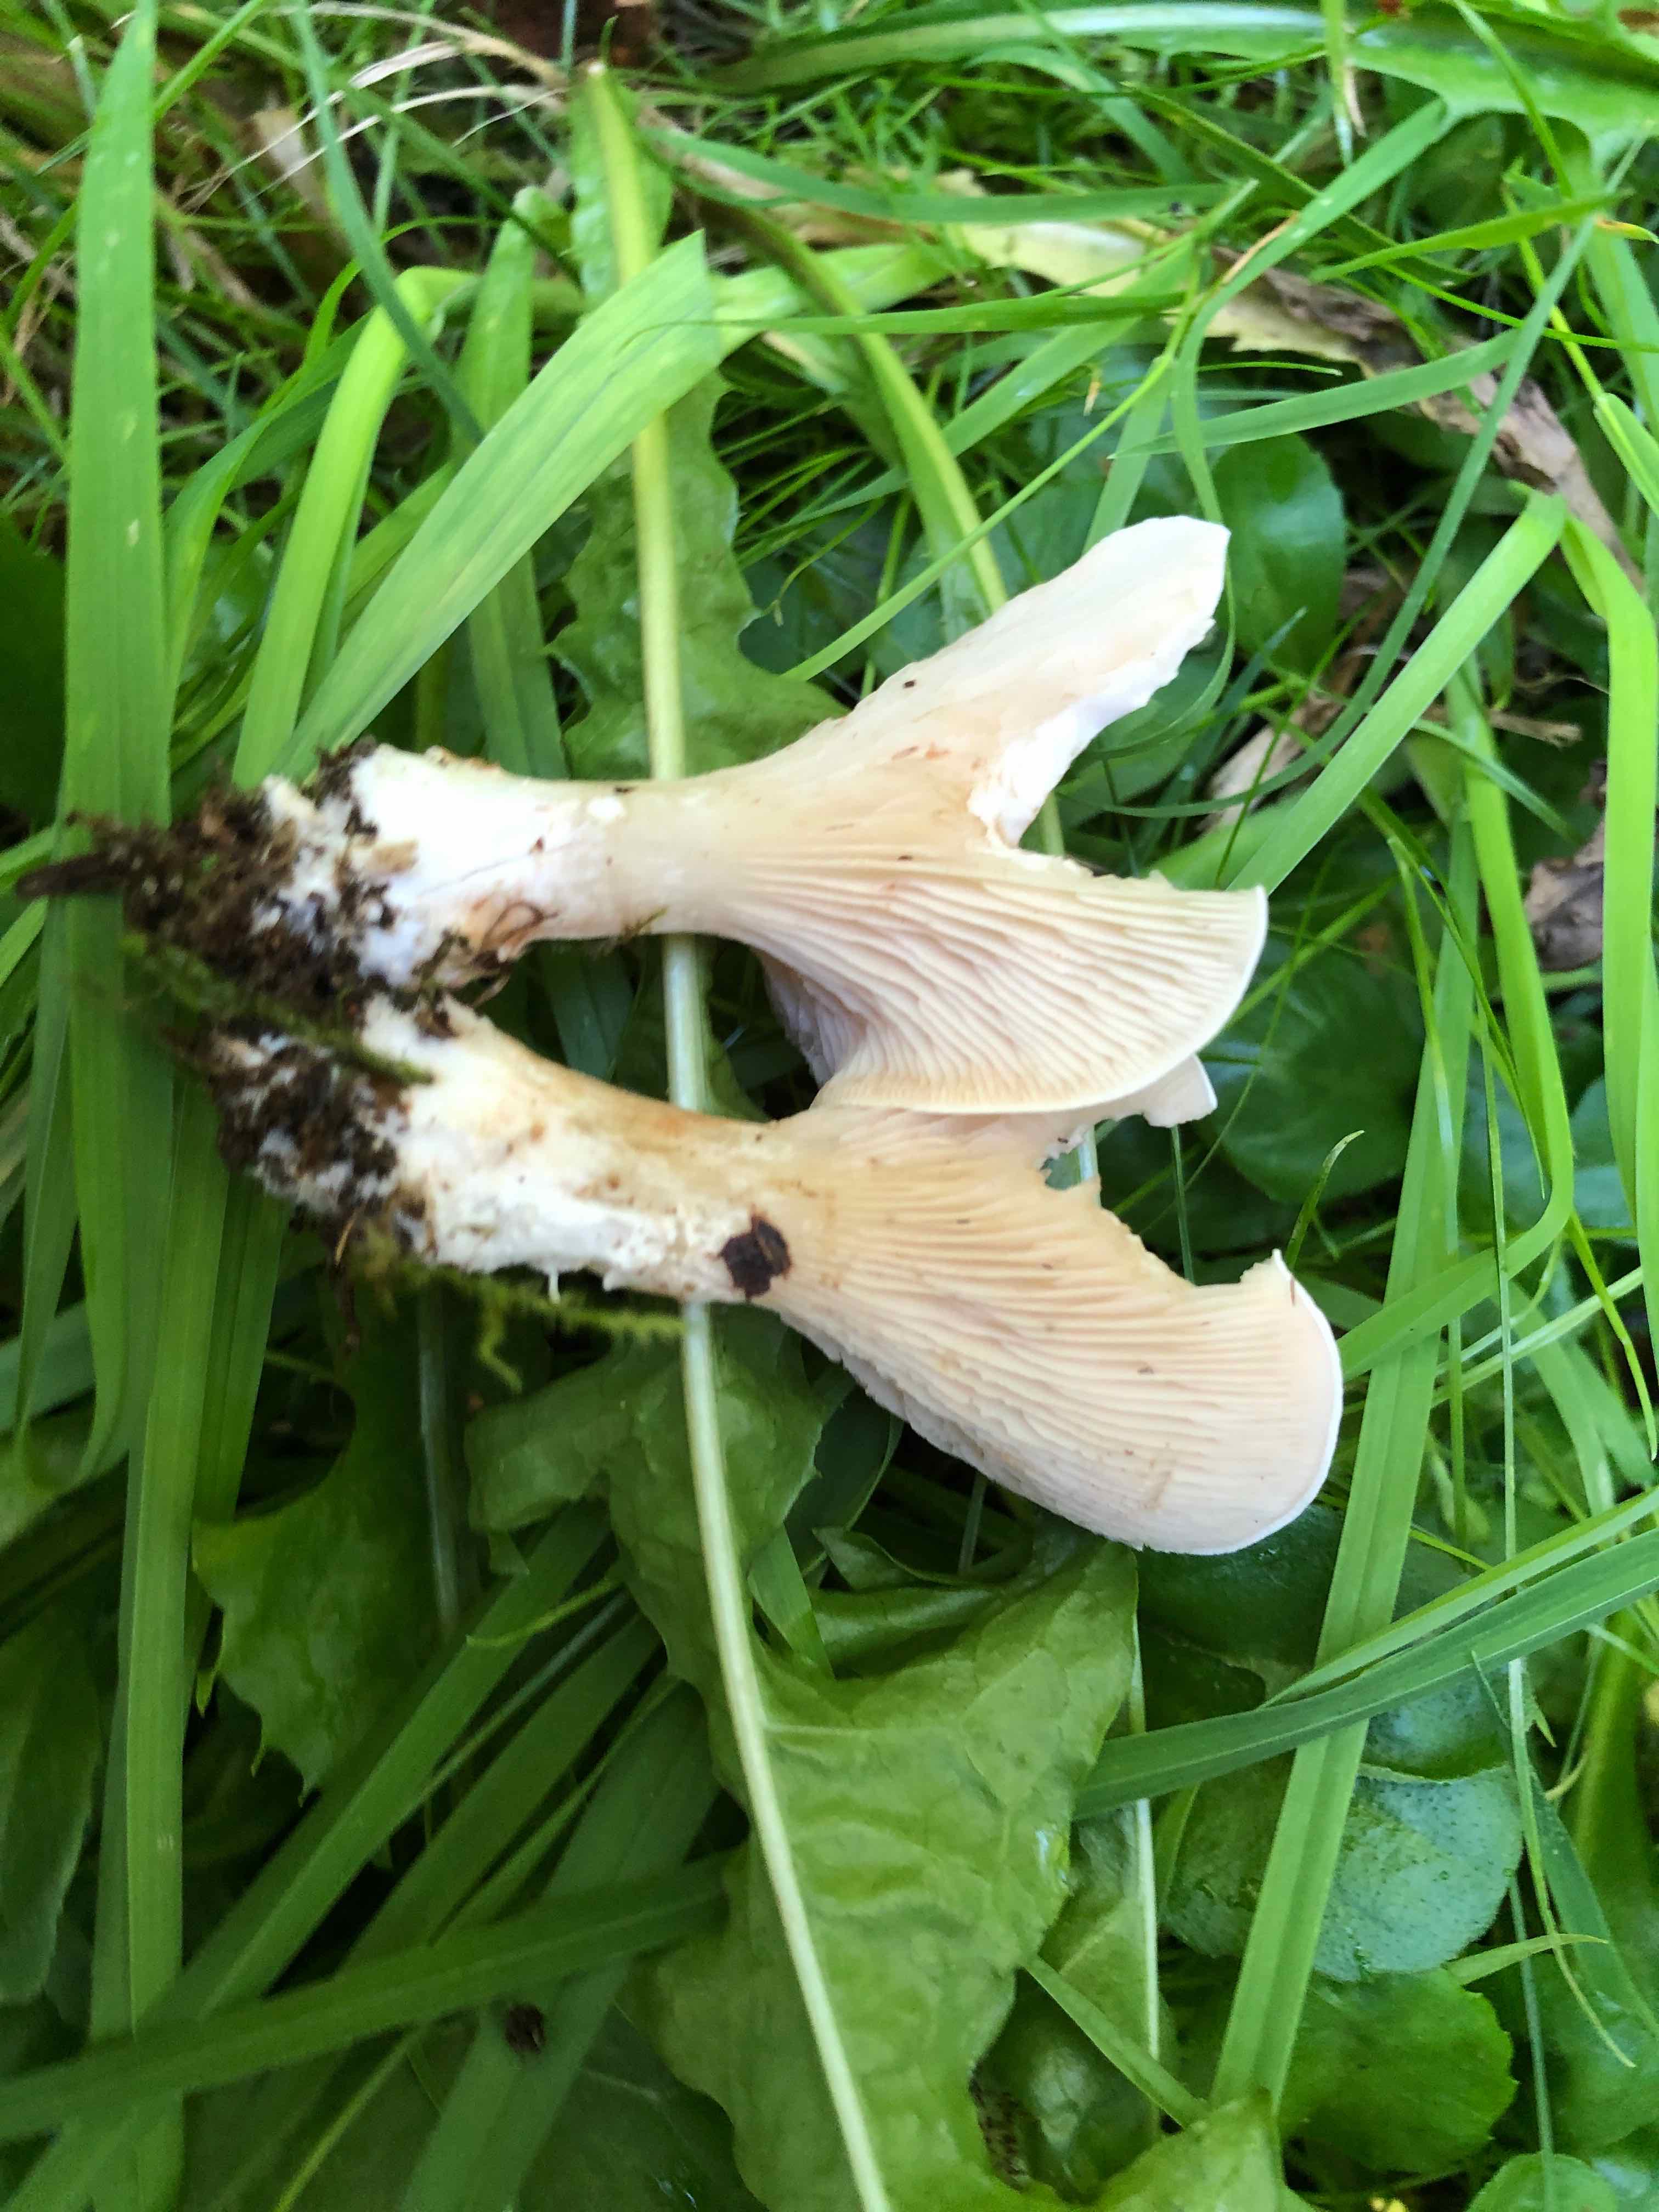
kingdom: Fungi
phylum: Basidiomycota
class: Agaricomycetes
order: Agaricales
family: Entolomataceae
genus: Clitopilus
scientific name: Clitopilus prunulus
